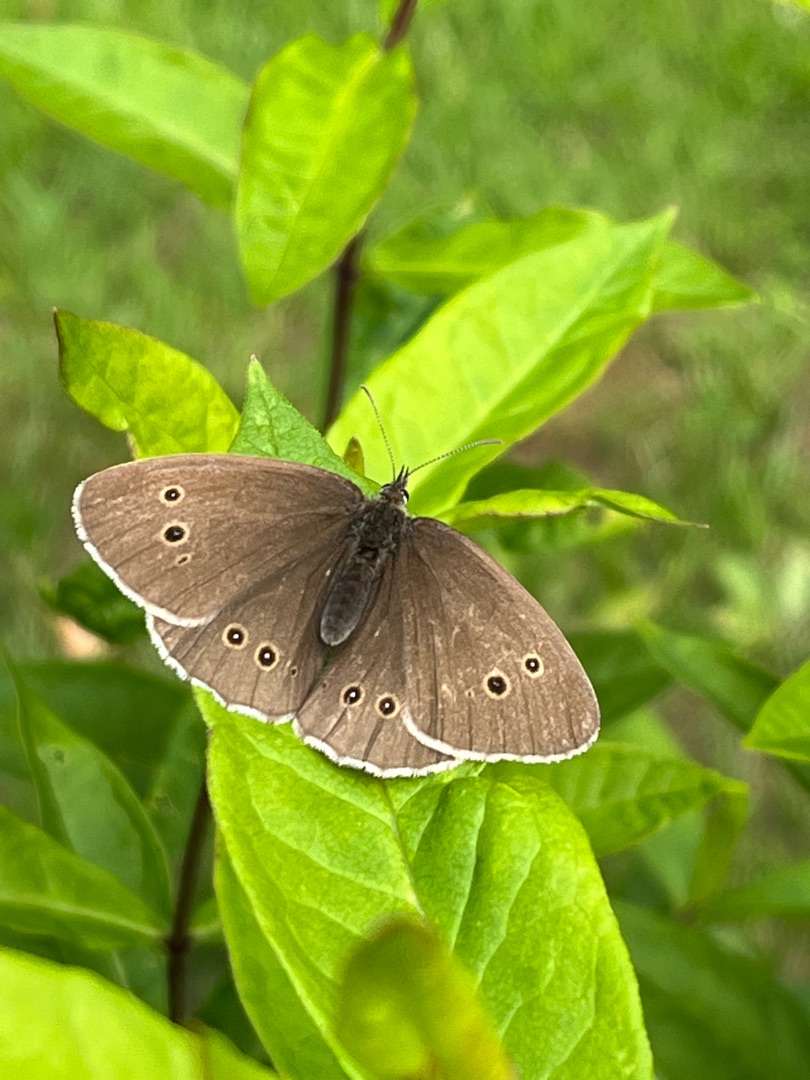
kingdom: Animalia
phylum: Arthropoda
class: Insecta
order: Lepidoptera
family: Nymphalidae
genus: Aphantopus
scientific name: Aphantopus hyperantus
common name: Engrandøje
